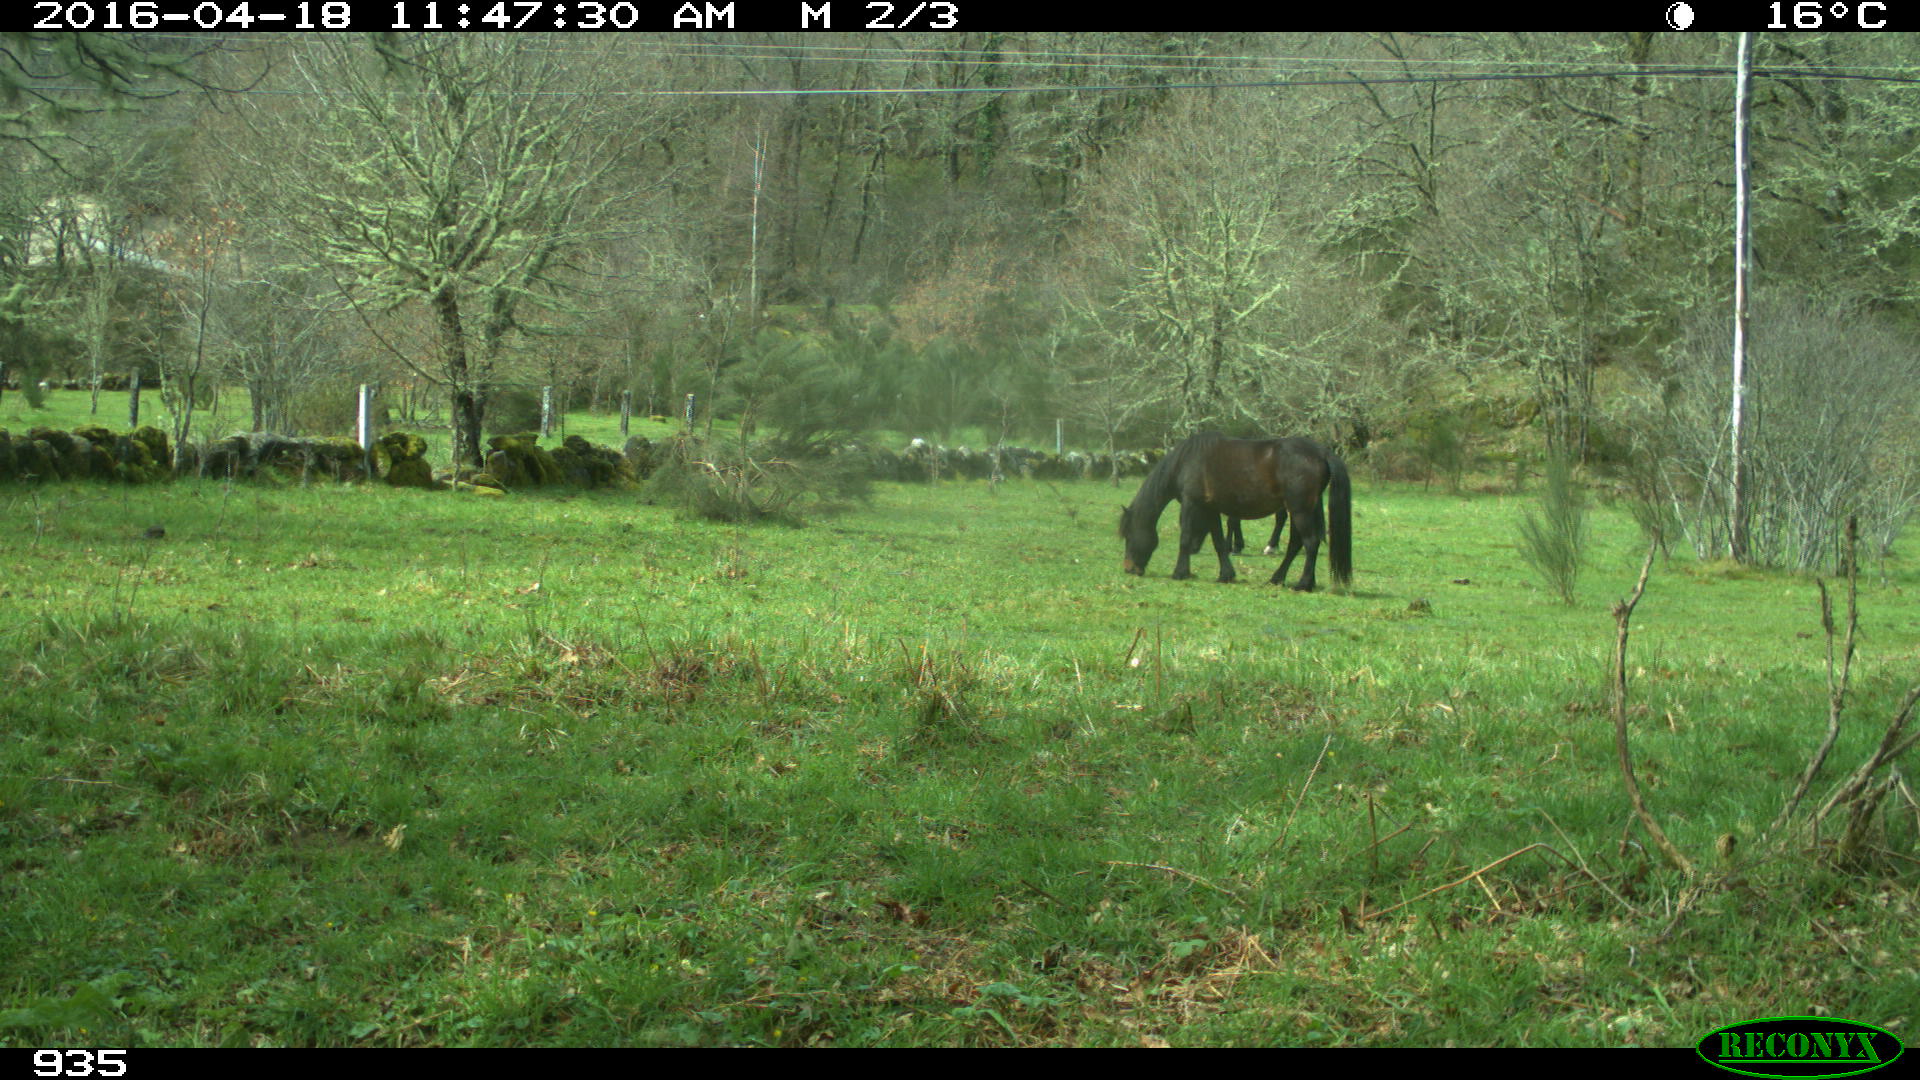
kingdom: Animalia
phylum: Chordata
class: Mammalia
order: Perissodactyla
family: Equidae
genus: Equus
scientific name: Equus caballus
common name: Horse
